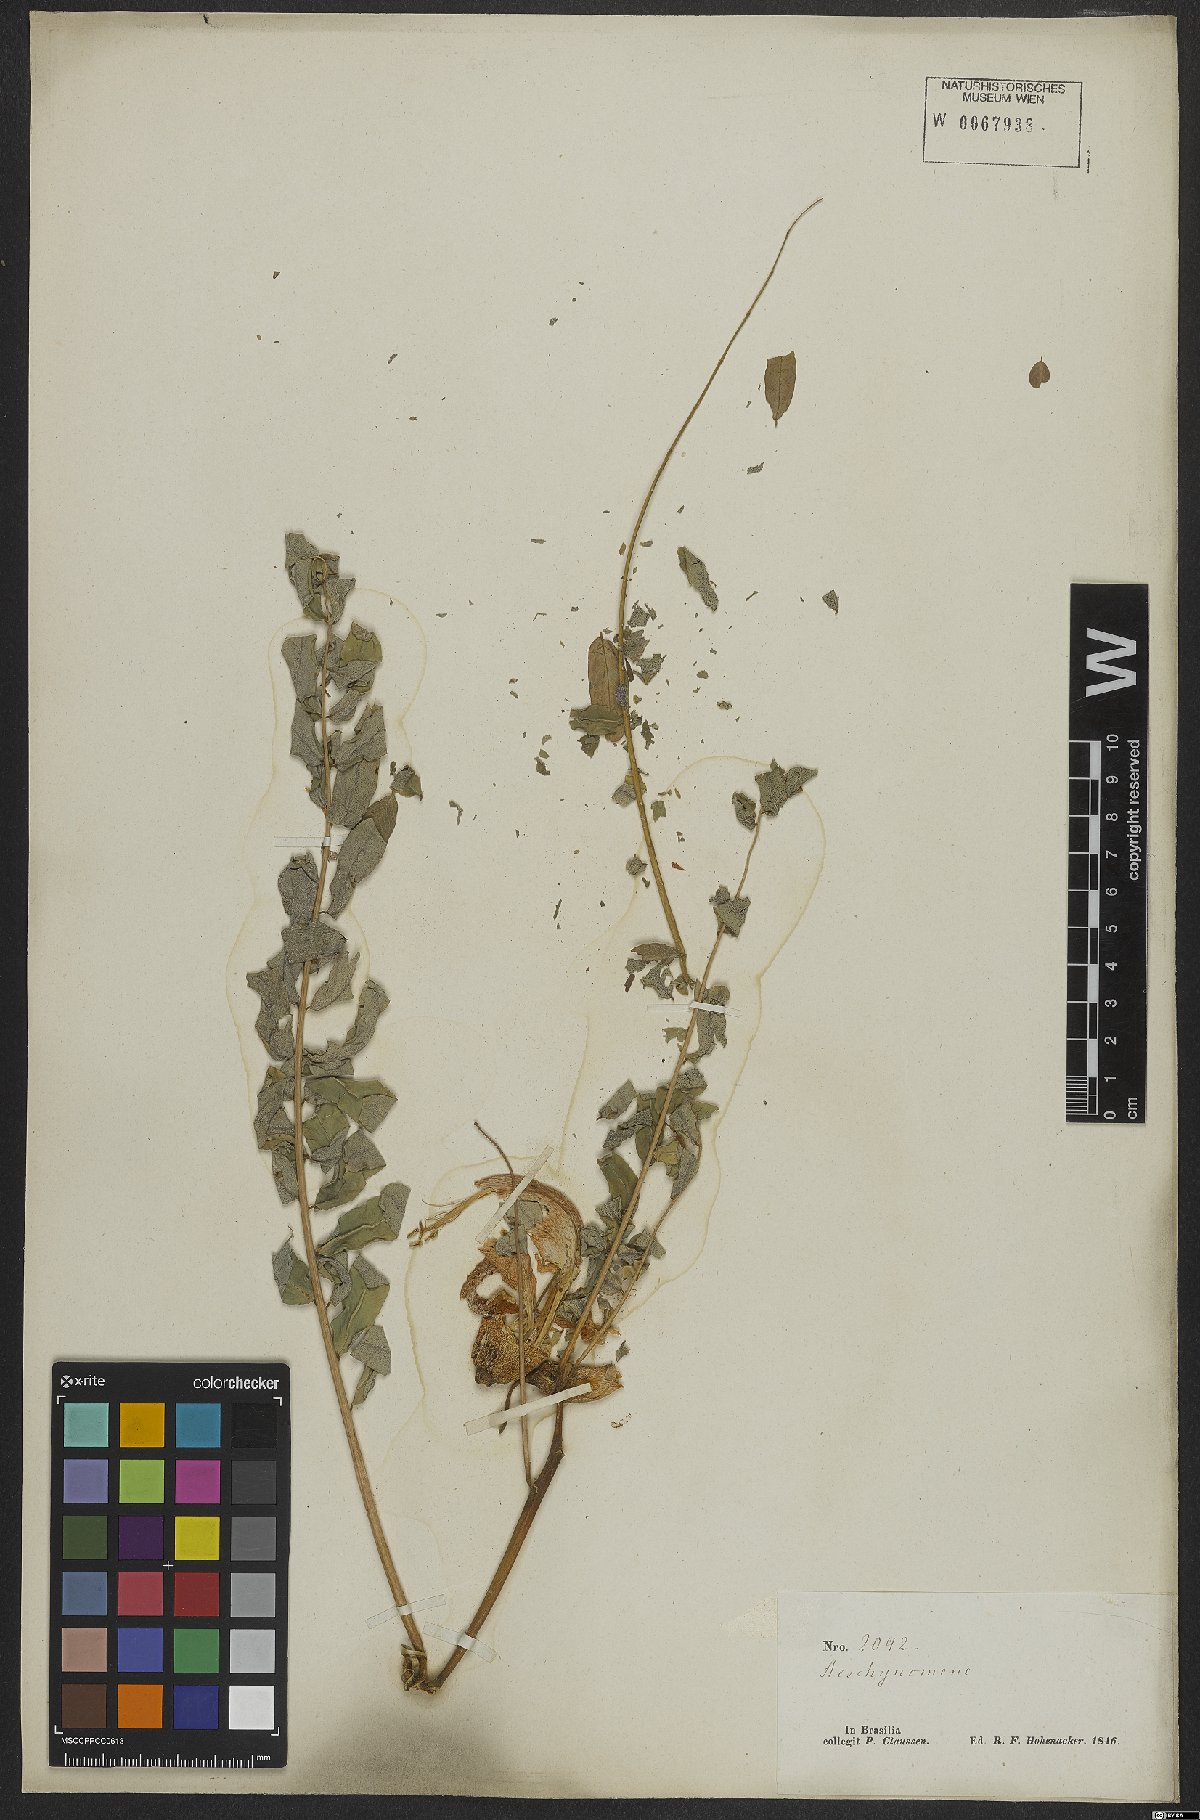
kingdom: Plantae
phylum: Tracheophyta
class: Magnoliopsida
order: Fabales
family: Fabaceae
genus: Sesbania
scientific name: Sesbania grandiflora
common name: Vegetable-hummingbird
